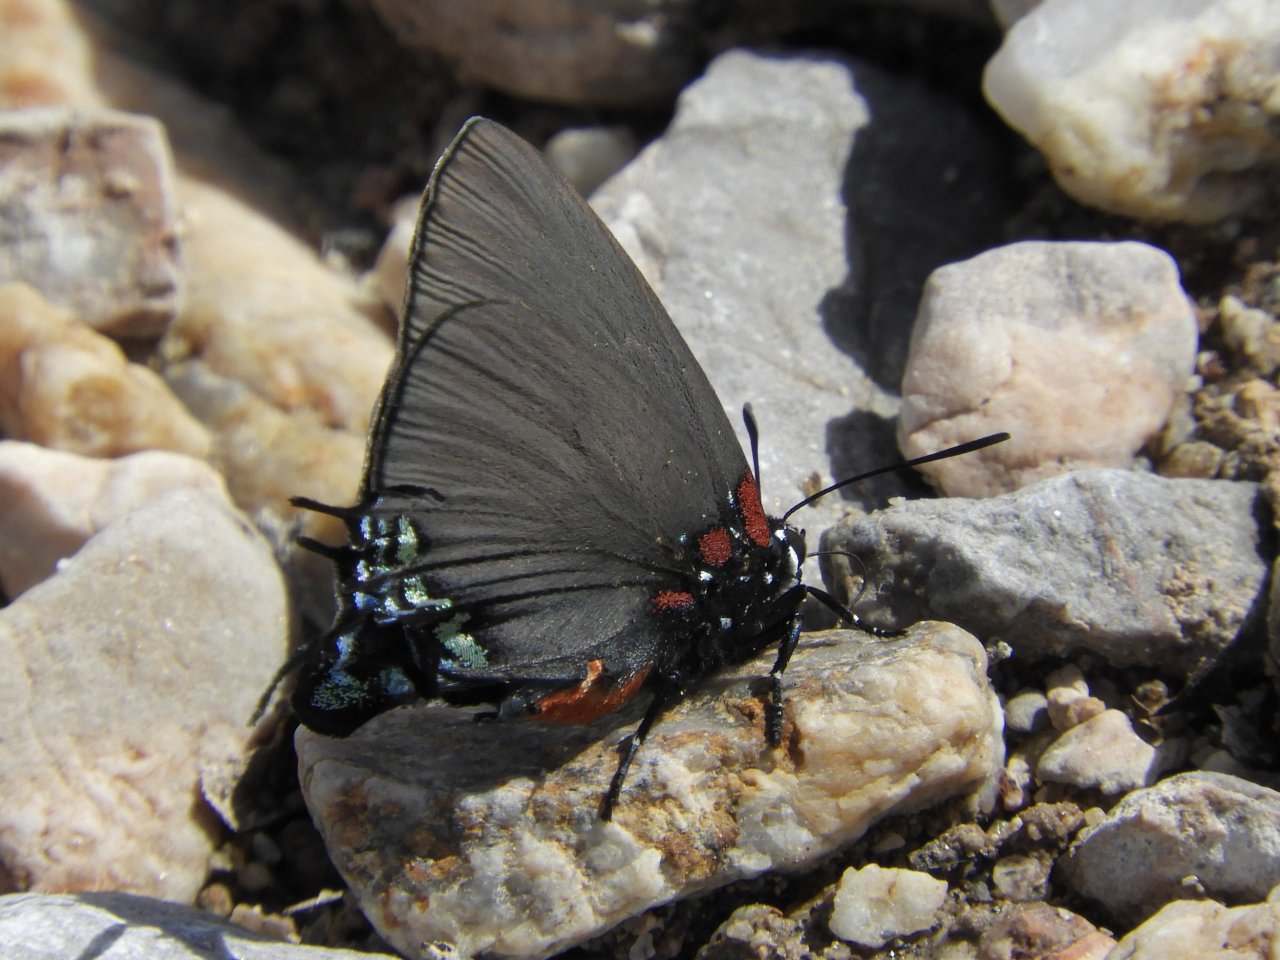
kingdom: Animalia
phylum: Arthropoda
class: Insecta
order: Lepidoptera
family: Lycaenidae
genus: Atlides
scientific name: Atlides halesus
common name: Great Purple Hairstreak
